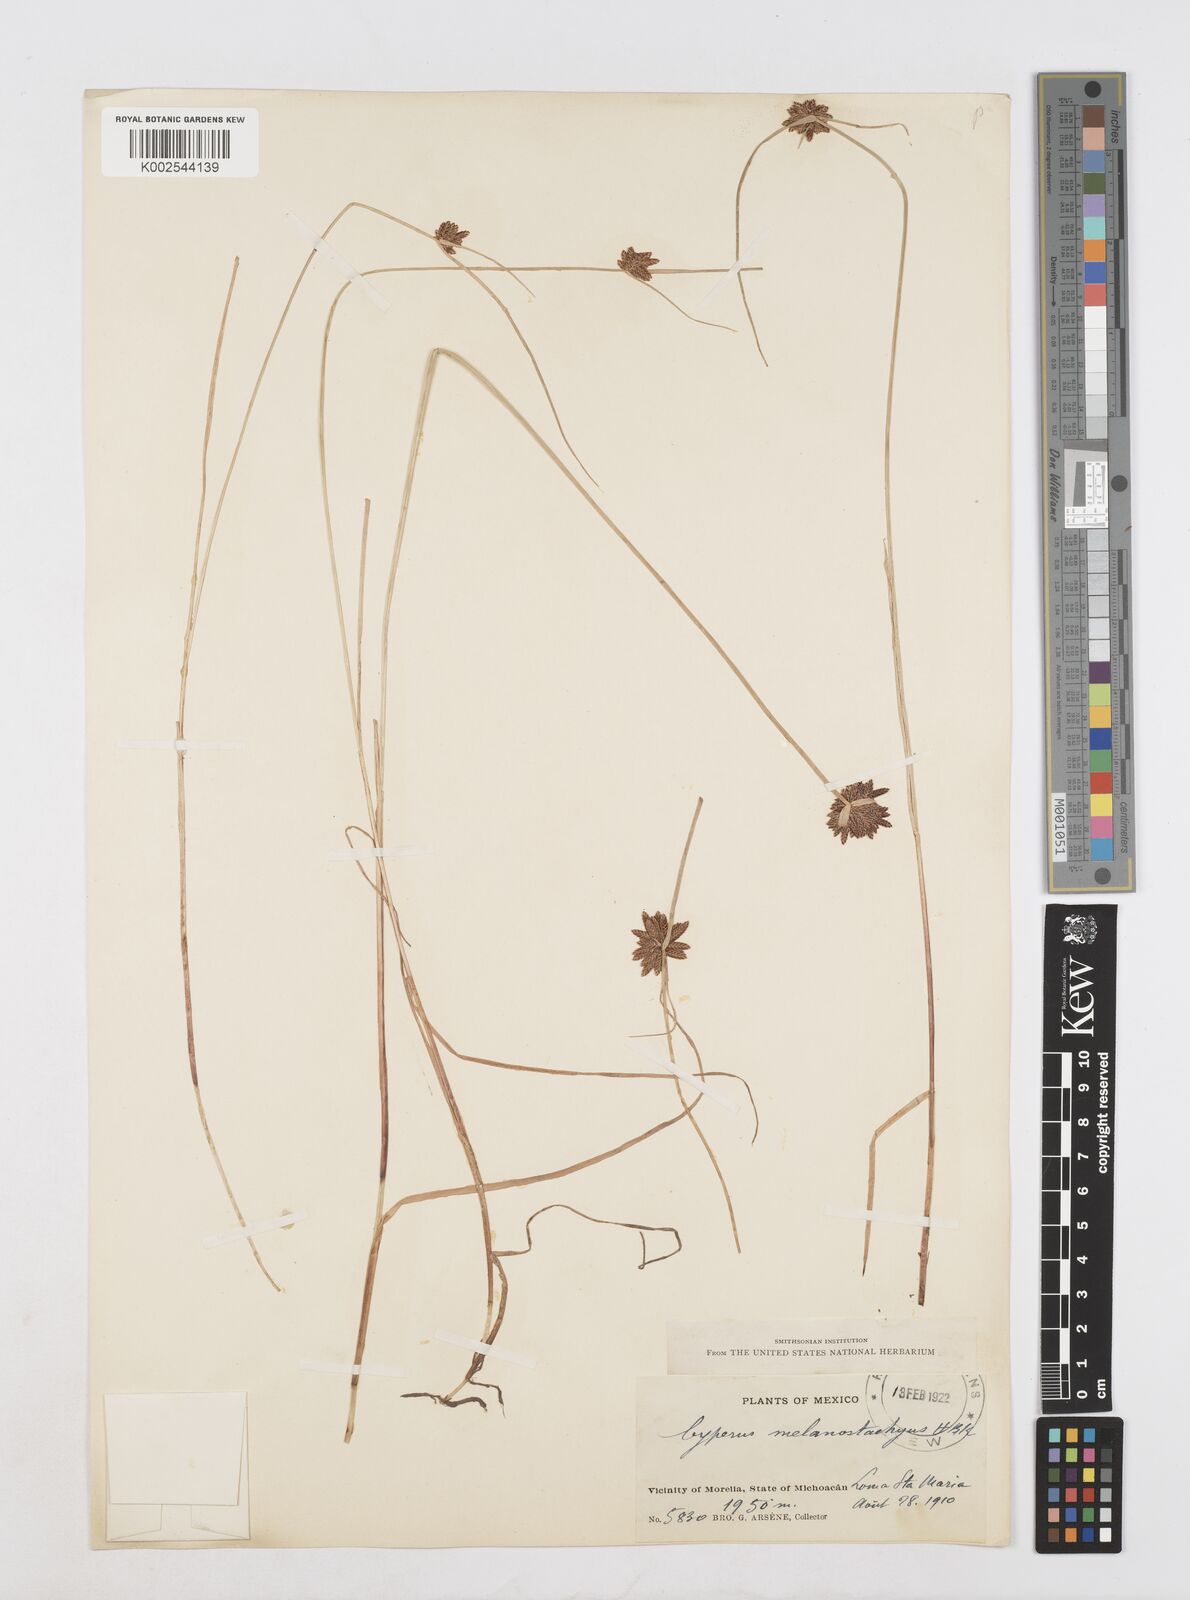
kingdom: Plantae
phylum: Tracheophyta
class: Liliopsida
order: Poales
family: Cyperaceae
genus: Cyperus
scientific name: Cyperus melanostachyus
